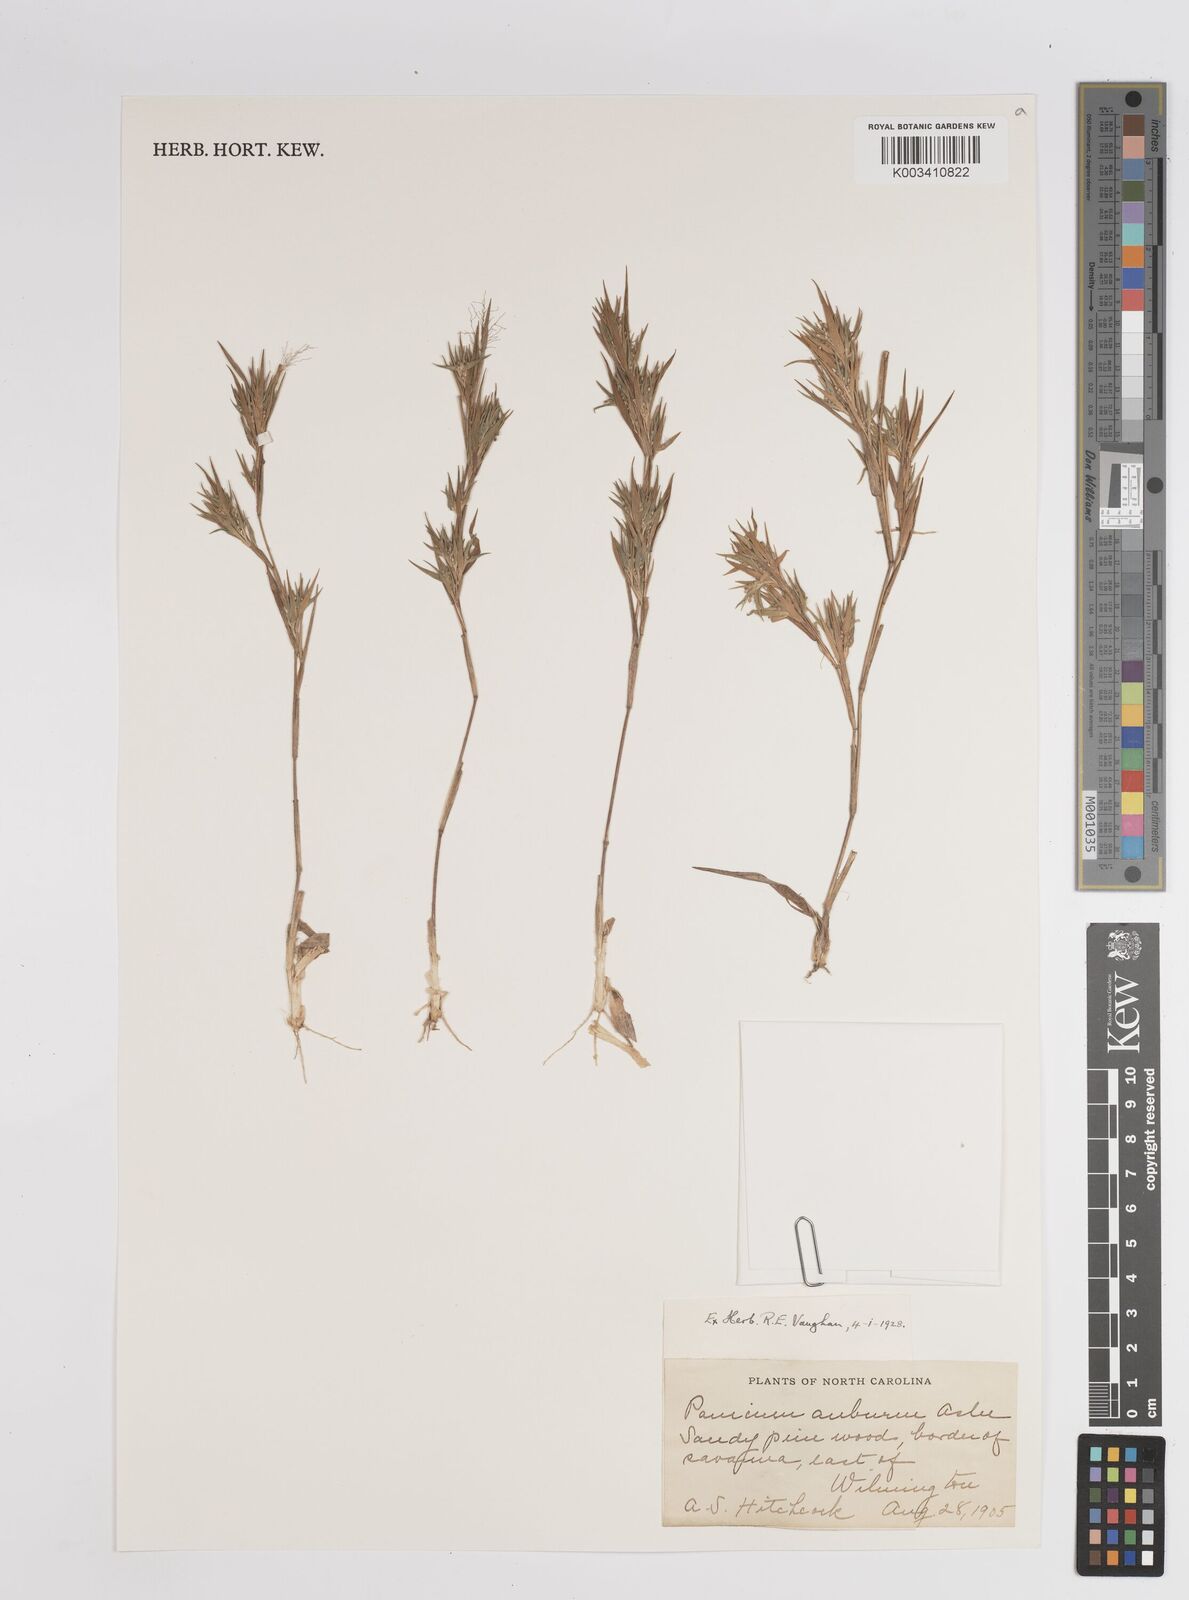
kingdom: Plantae
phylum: Tracheophyta
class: Liliopsida
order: Poales
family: Poaceae
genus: Dichanthelium
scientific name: Dichanthelium implicatum
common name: Slender-stemmed panicgrass
